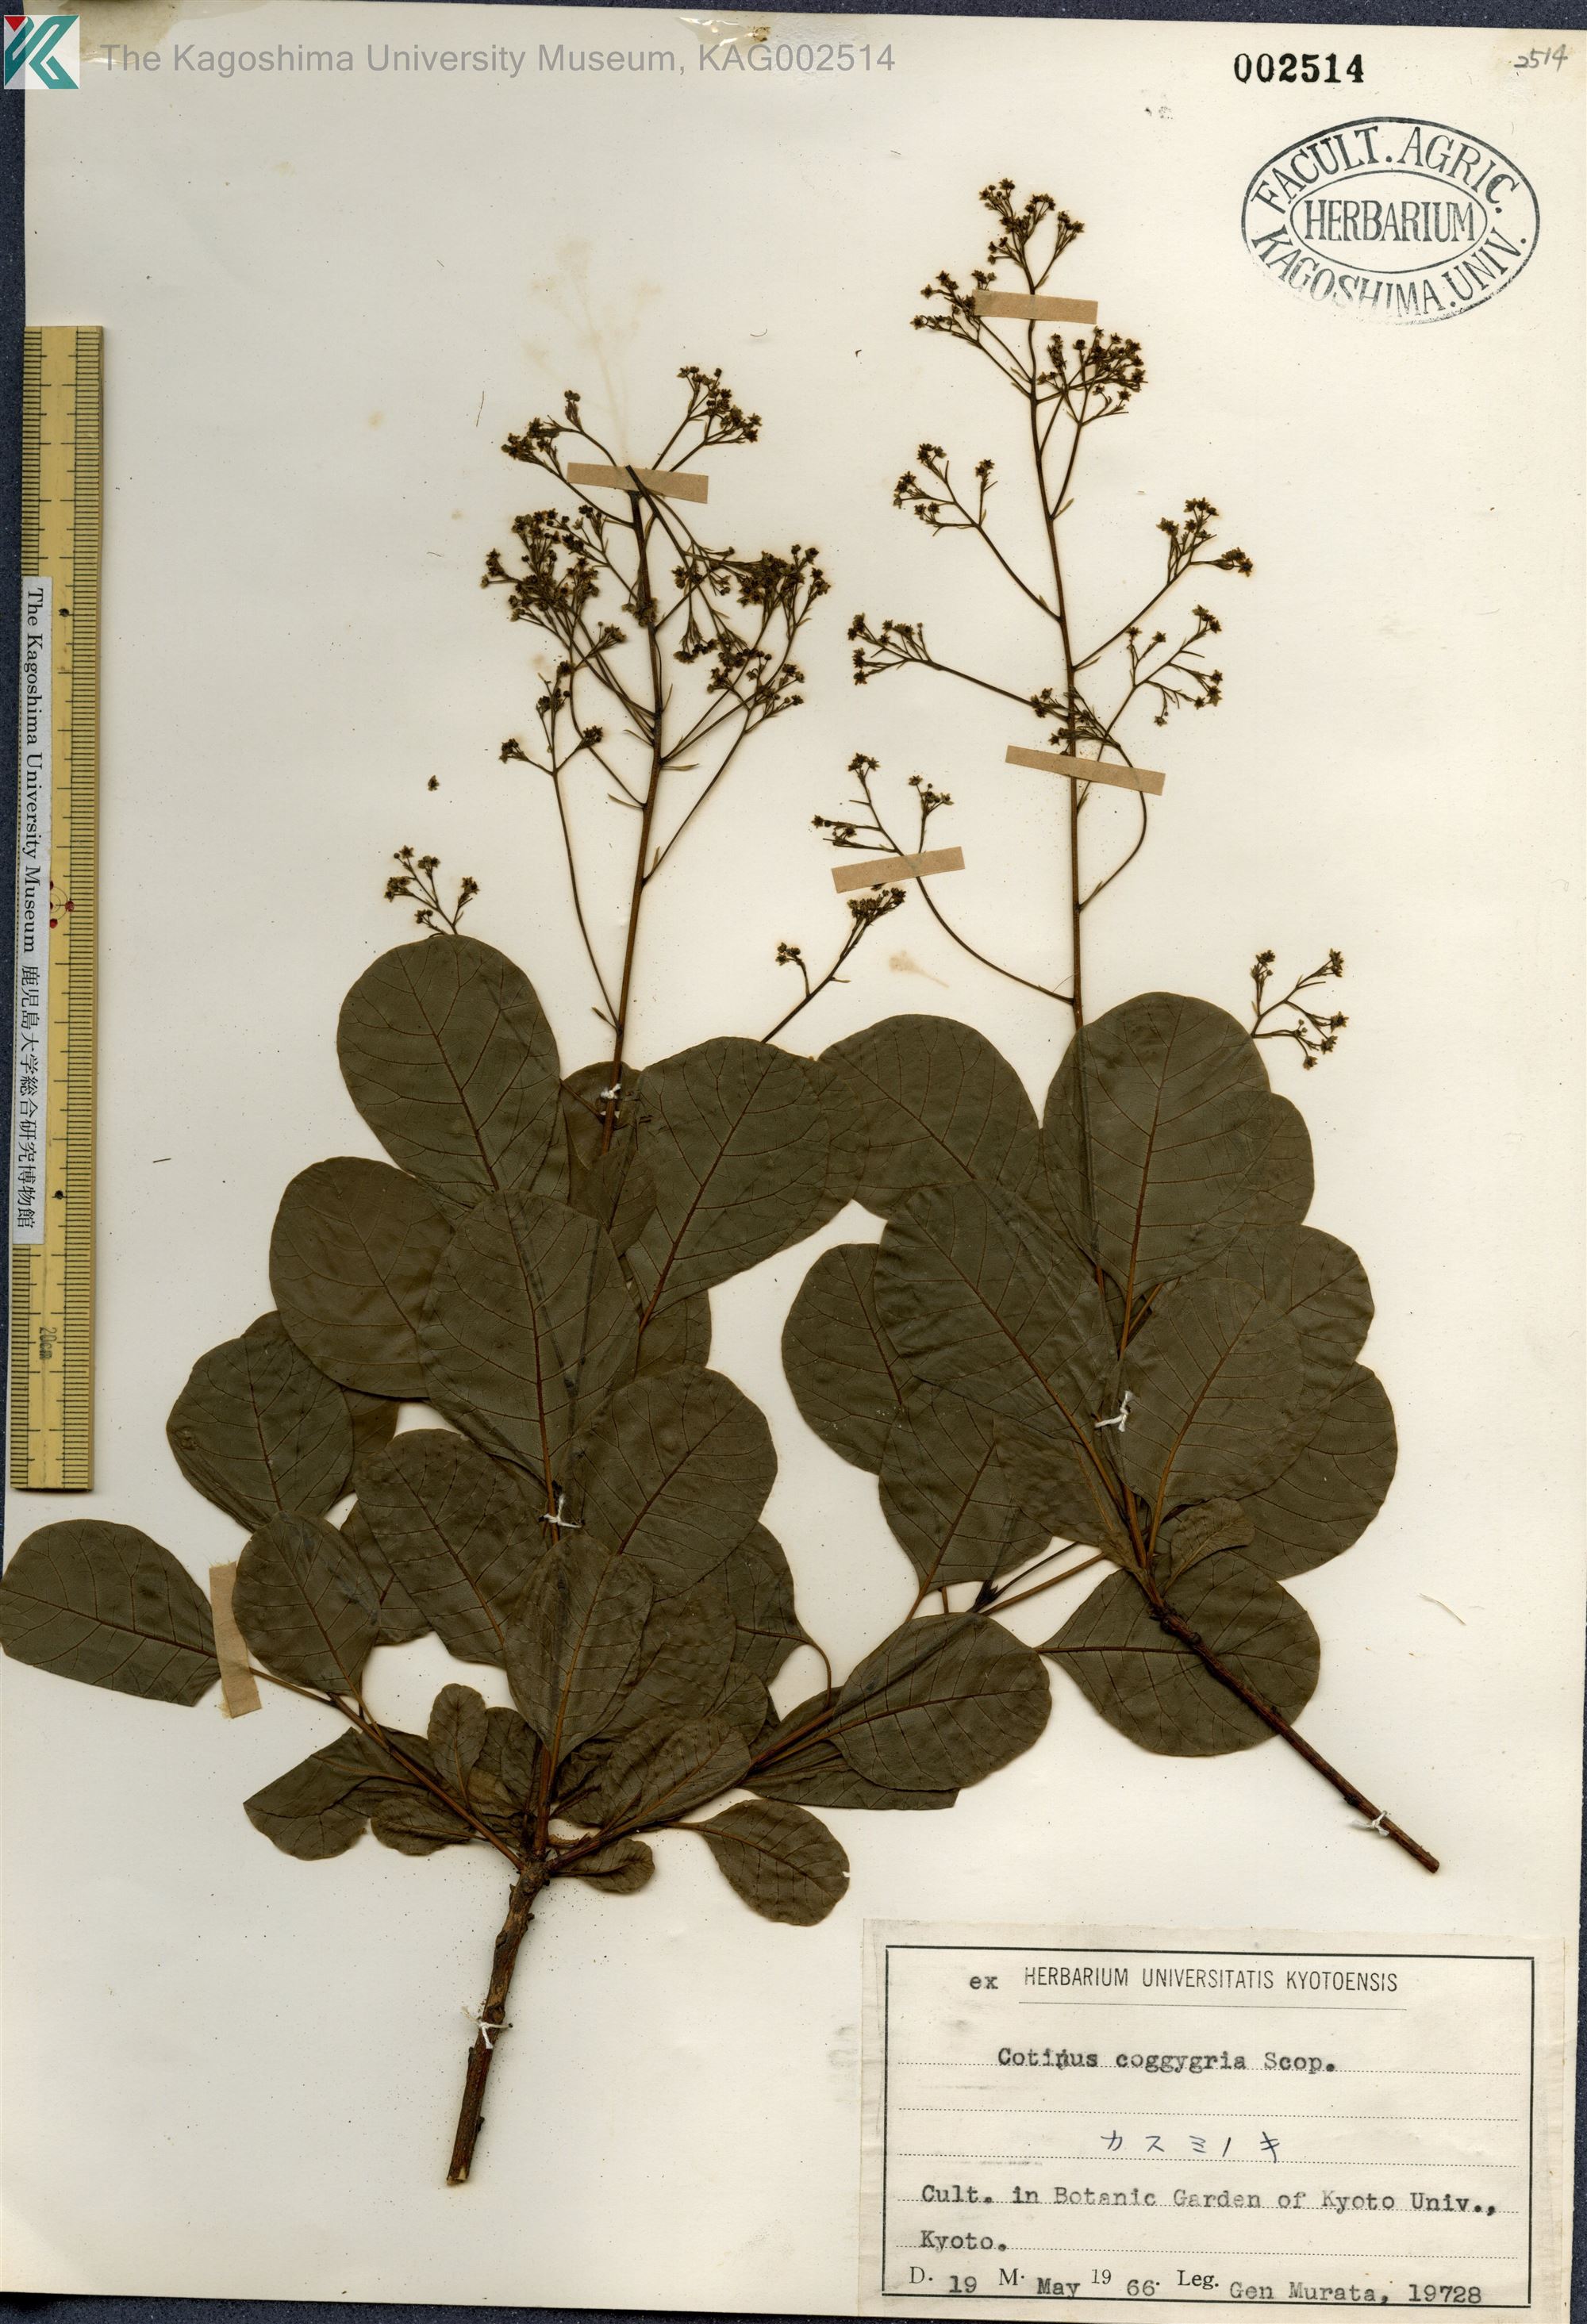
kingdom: Plantae
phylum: Tracheophyta
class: Magnoliopsida
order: Sapindales
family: Anacardiaceae
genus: Cotinus
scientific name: Cotinus coggygria
